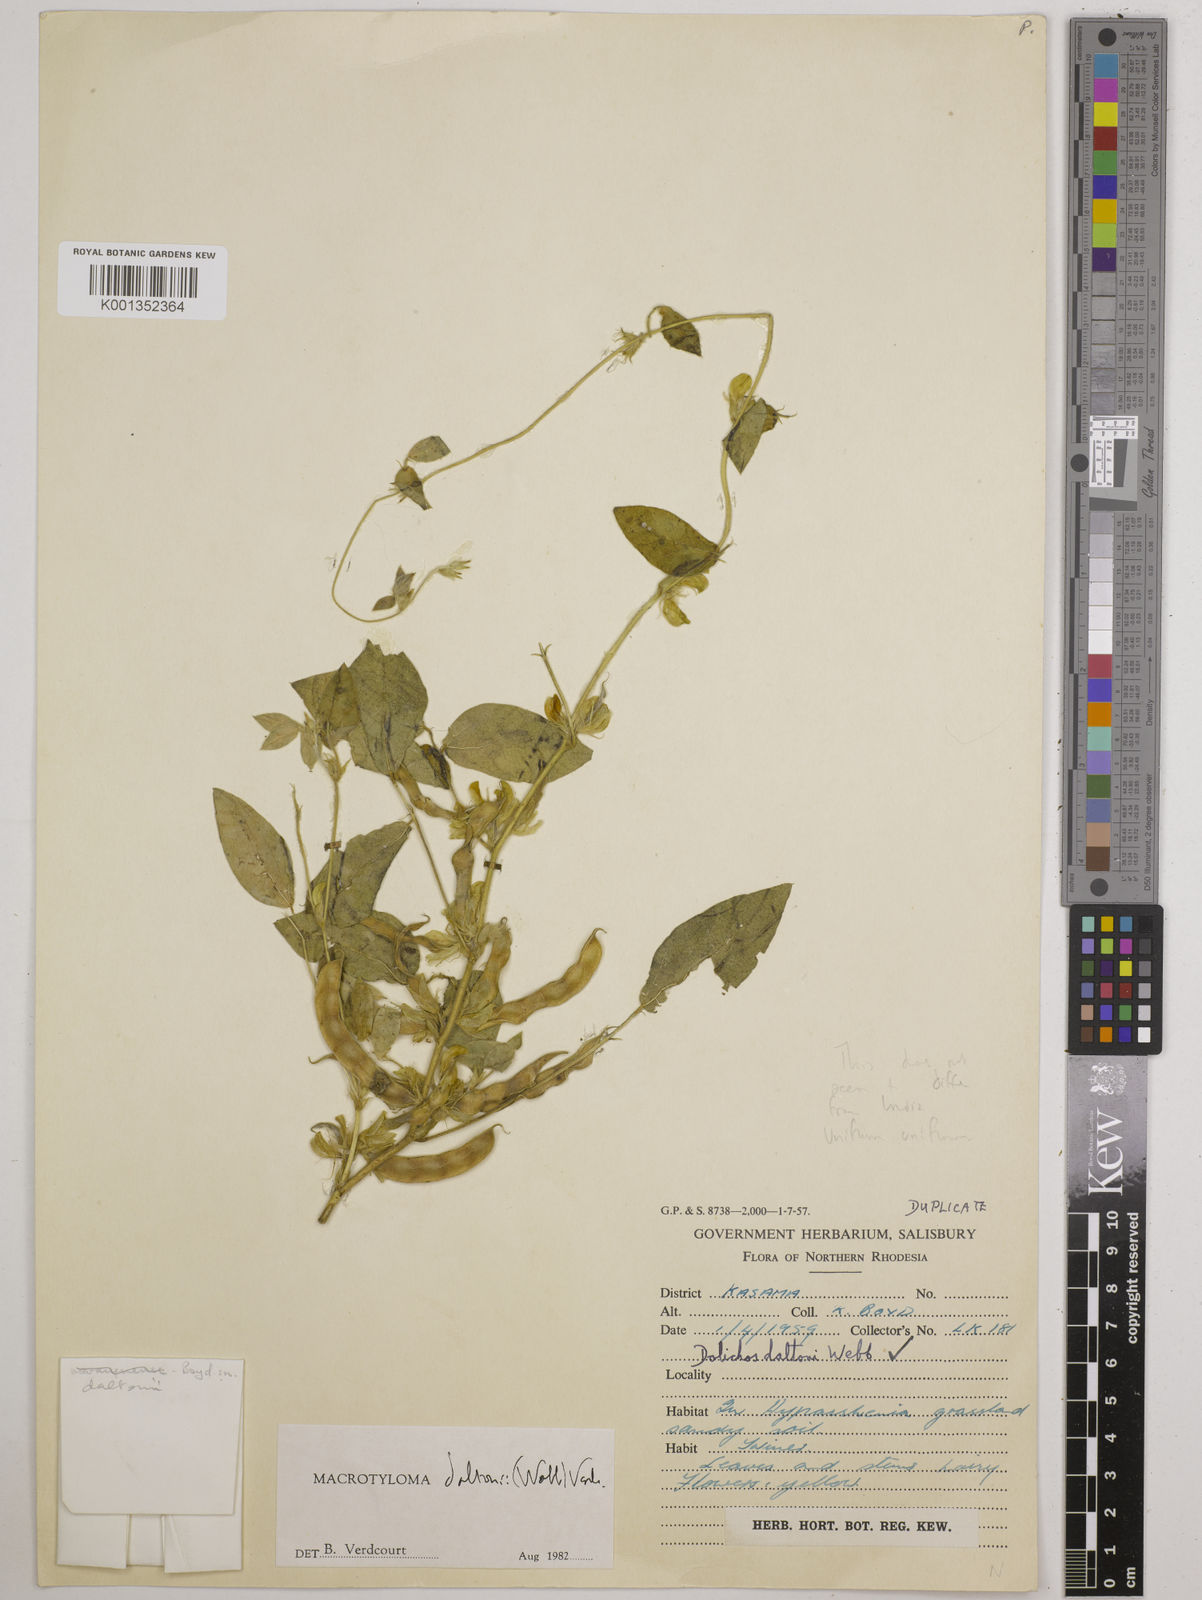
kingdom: Plantae
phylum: Tracheophyta
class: Magnoliopsida
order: Fabales
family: Fabaceae
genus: Macrotyloma
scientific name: Macrotyloma daltonii
